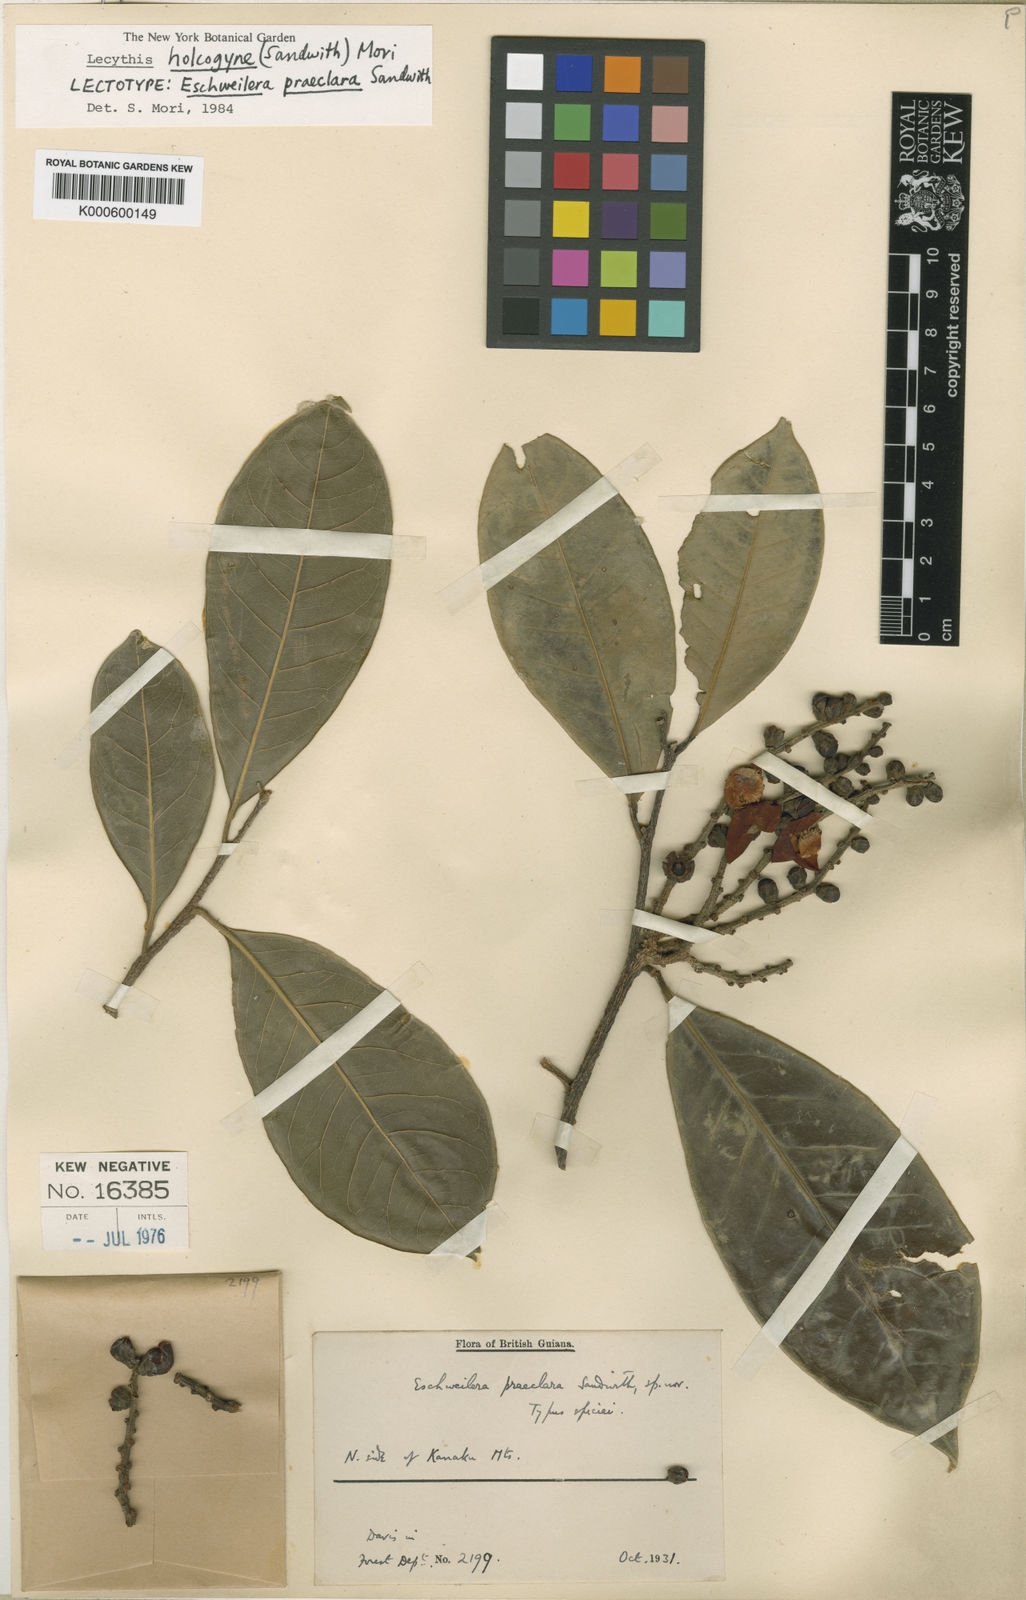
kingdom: Plantae
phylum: Tracheophyta
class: Magnoliopsida
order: Ericales
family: Lecythidaceae
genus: Lecythis
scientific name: Lecythis holcogyne
